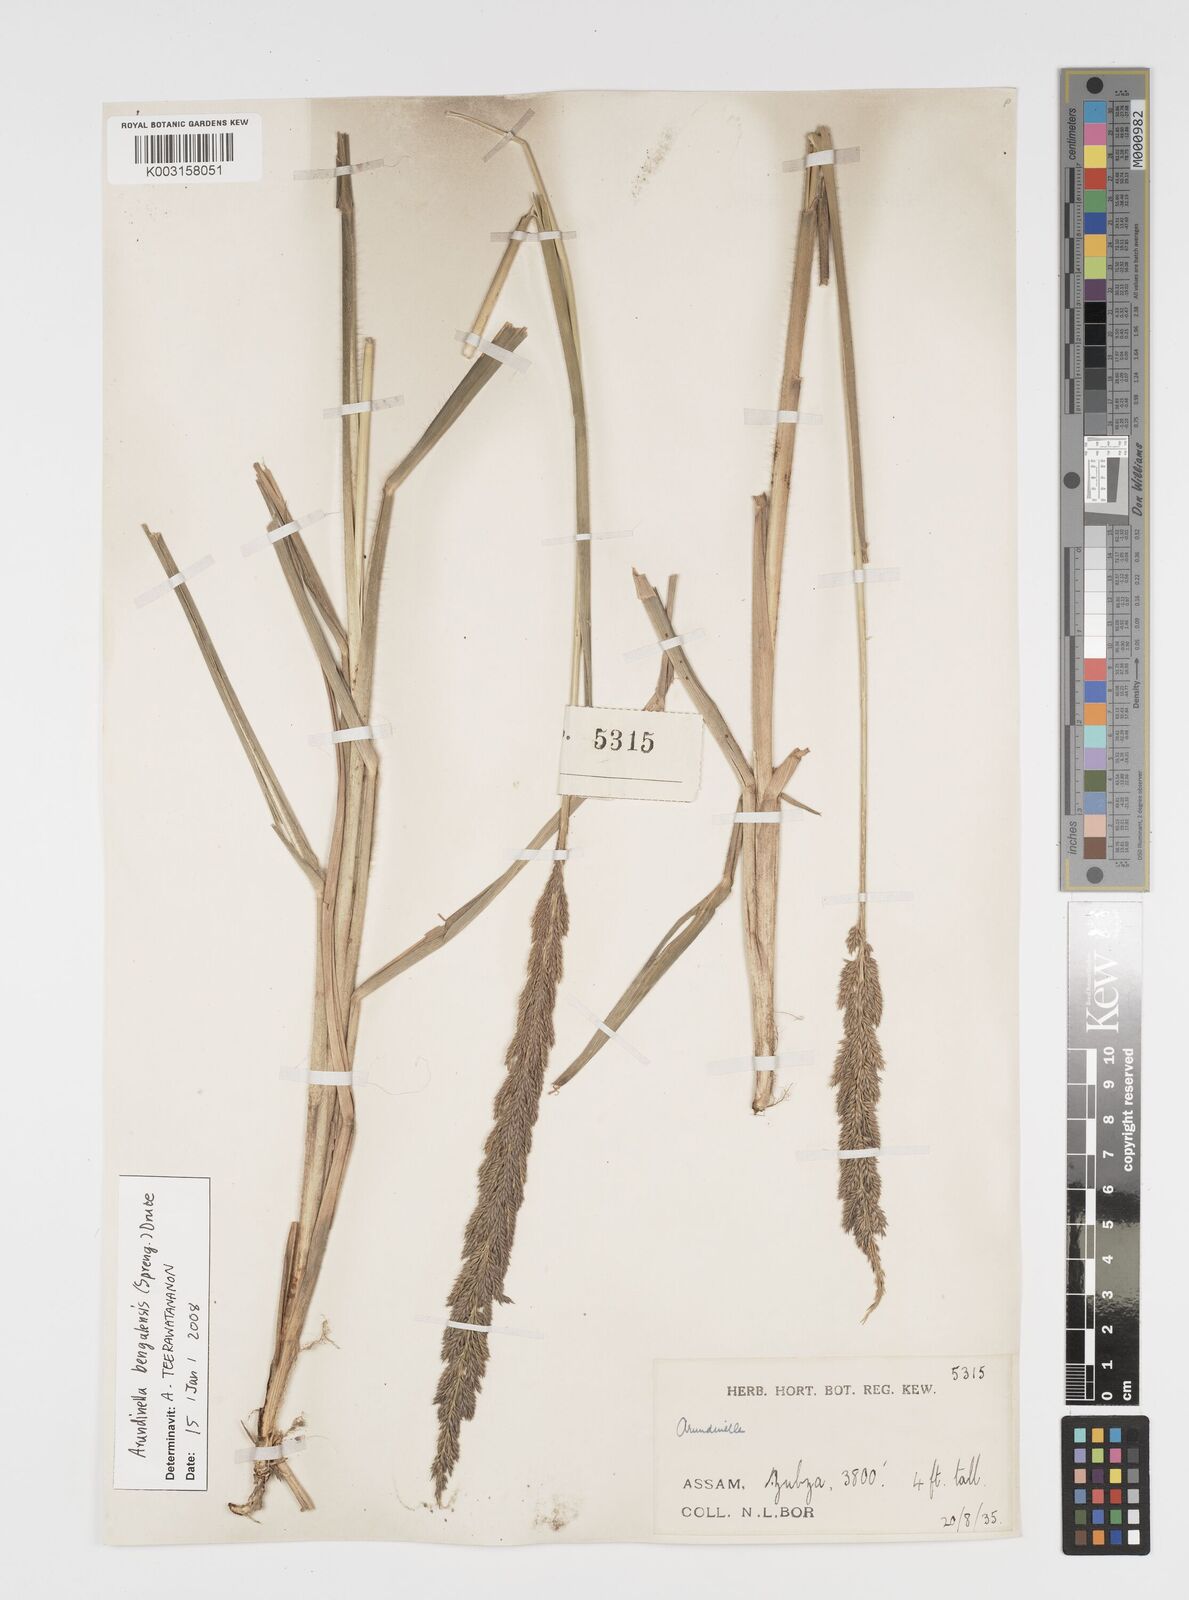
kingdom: Plantae
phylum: Tracheophyta
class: Liliopsida
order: Poales
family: Poaceae
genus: Arundinella
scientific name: Arundinella bengalensis
